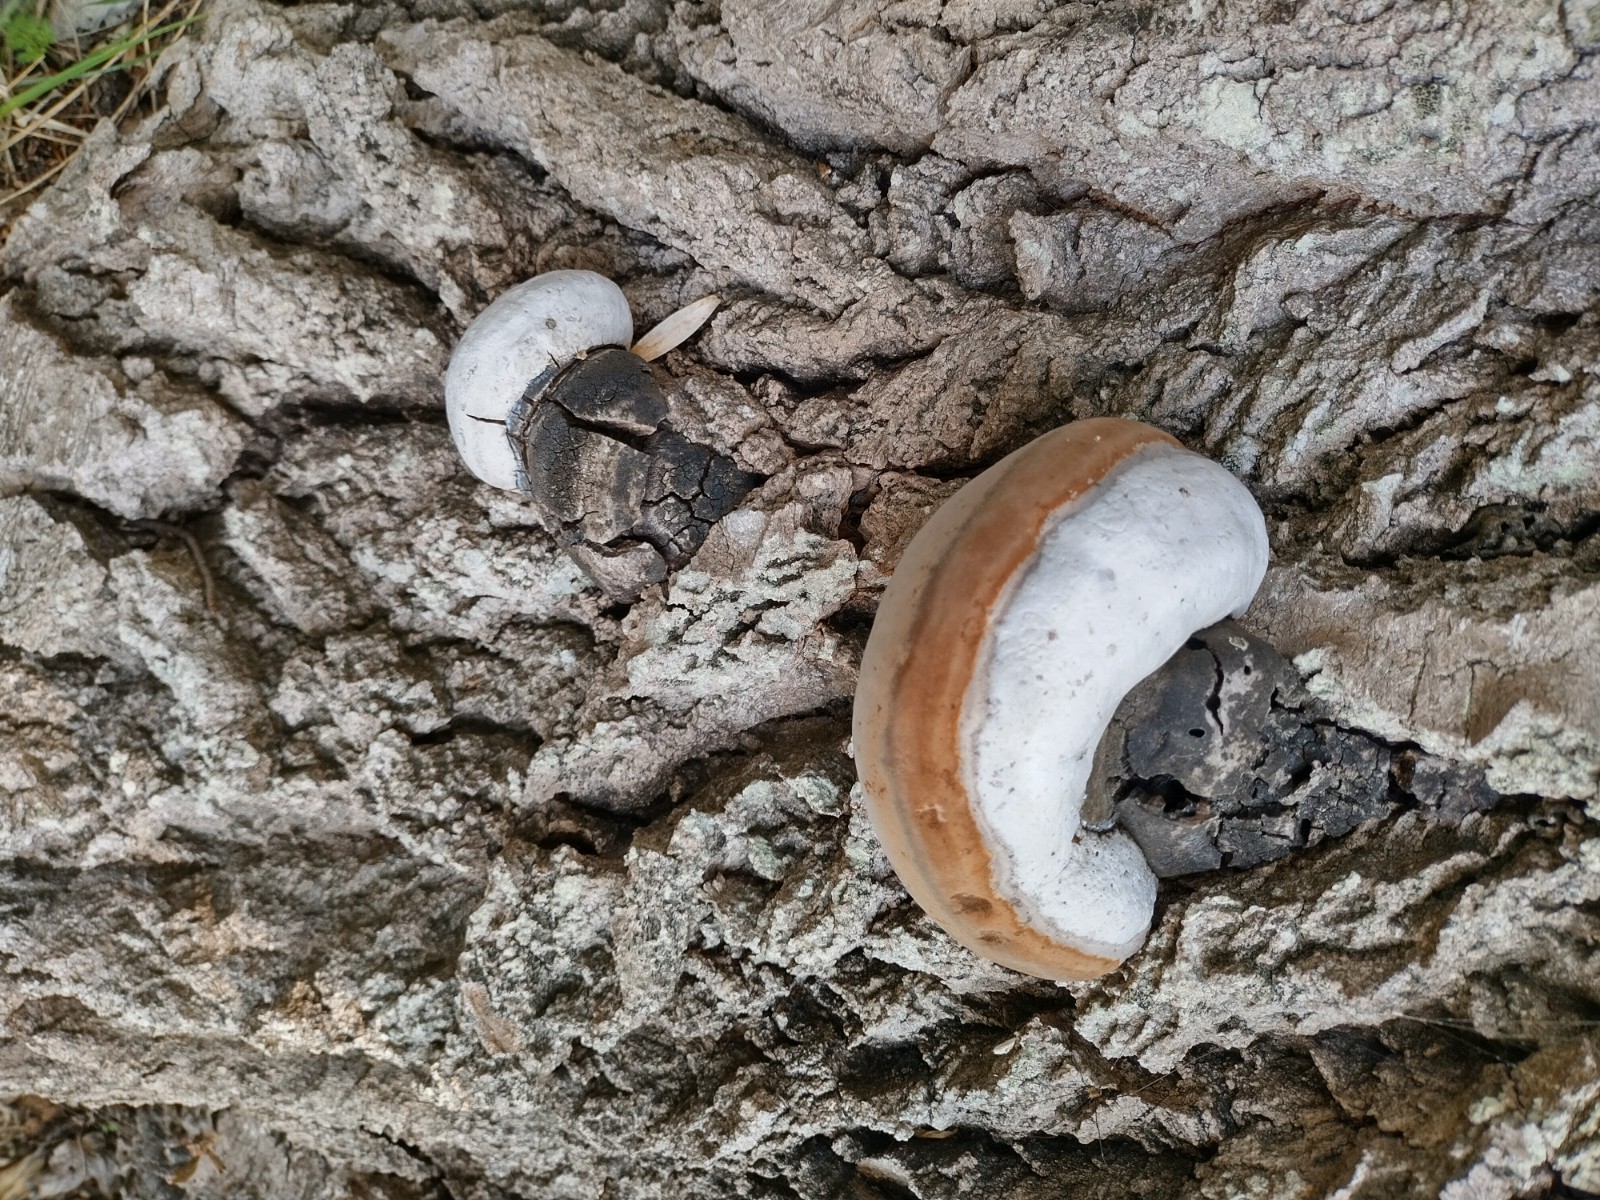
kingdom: Fungi
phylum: Basidiomycota
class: Agaricomycetes
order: Hymenochaetales
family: Hymenochaetaceae
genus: Phellinus
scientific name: Phellinus populicola
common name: poppel-ildporesvamp
